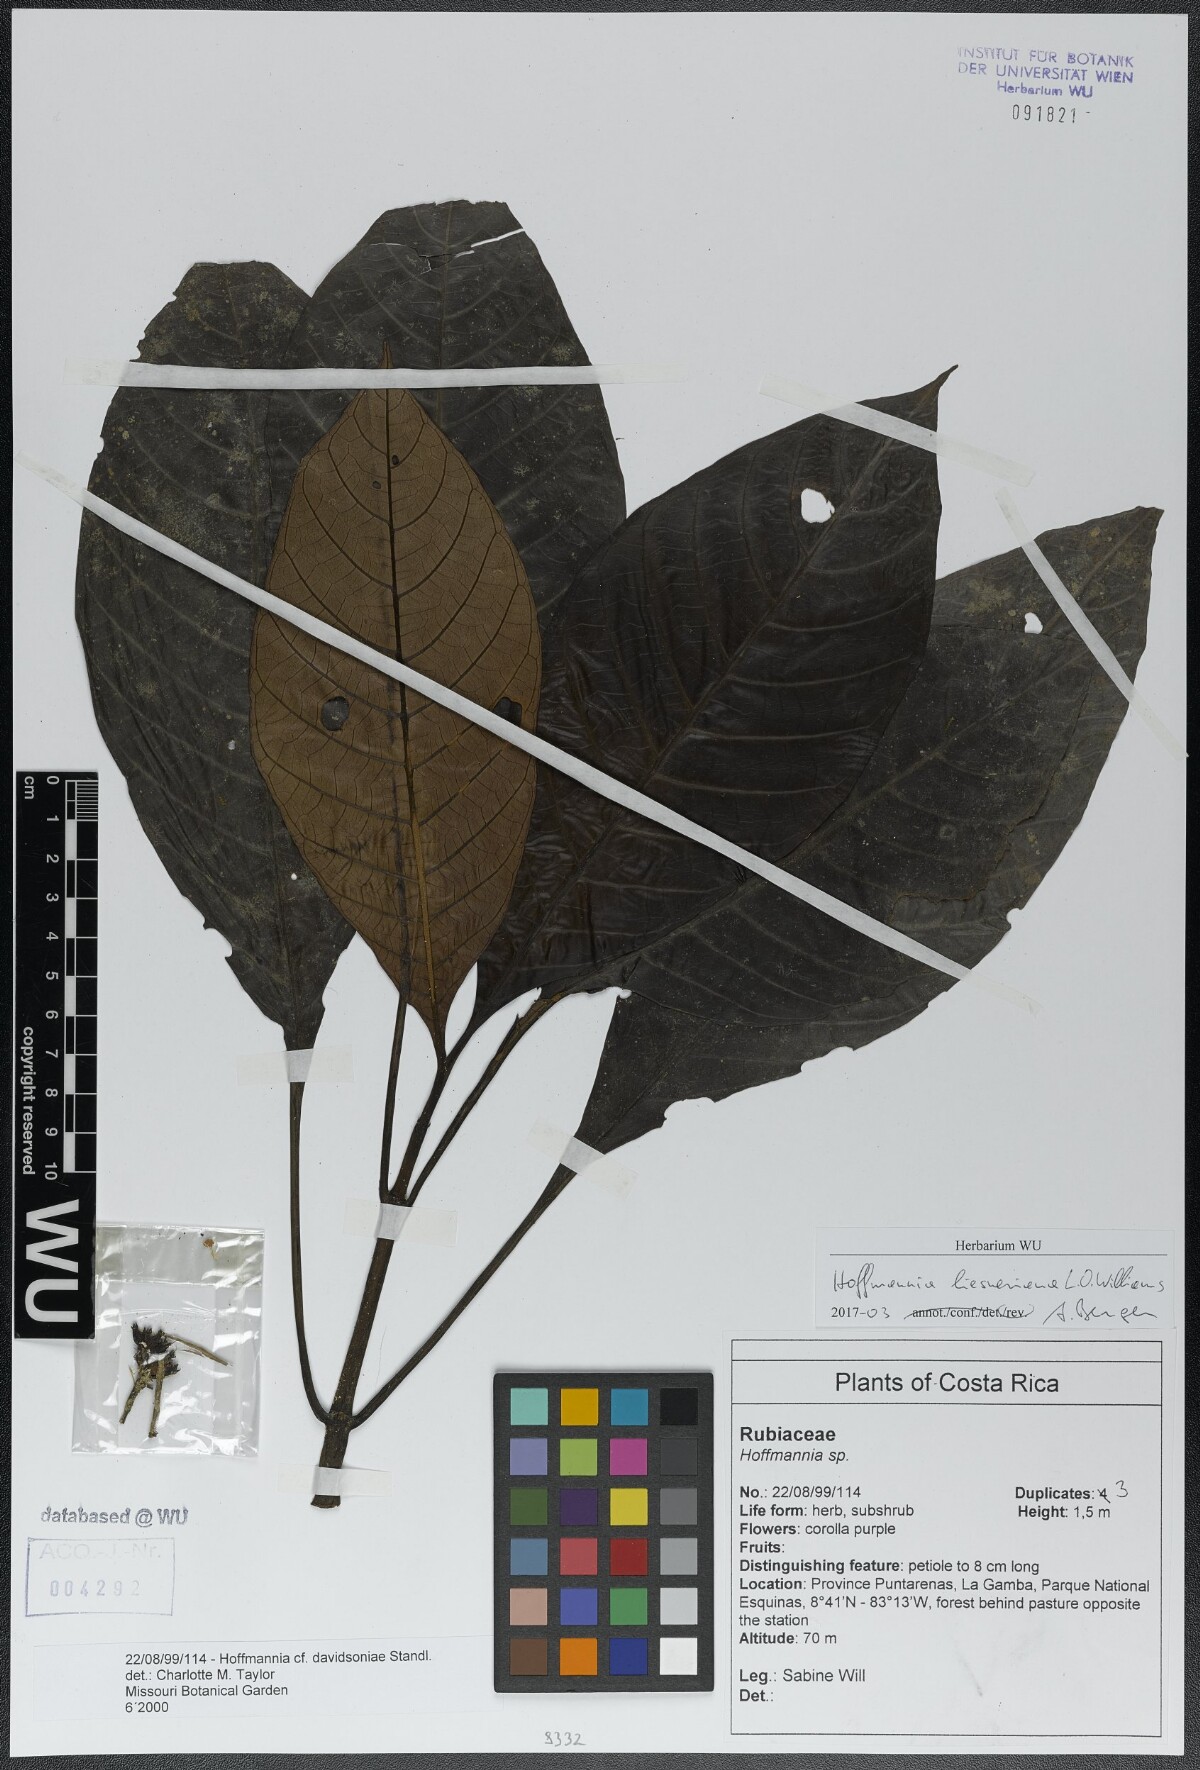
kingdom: Plantae
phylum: Tracheophyta
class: Magnoliopsida
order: Gentianales
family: Rubiaceae
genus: Hoffmannia
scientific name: Hoffmannia liesneriana
